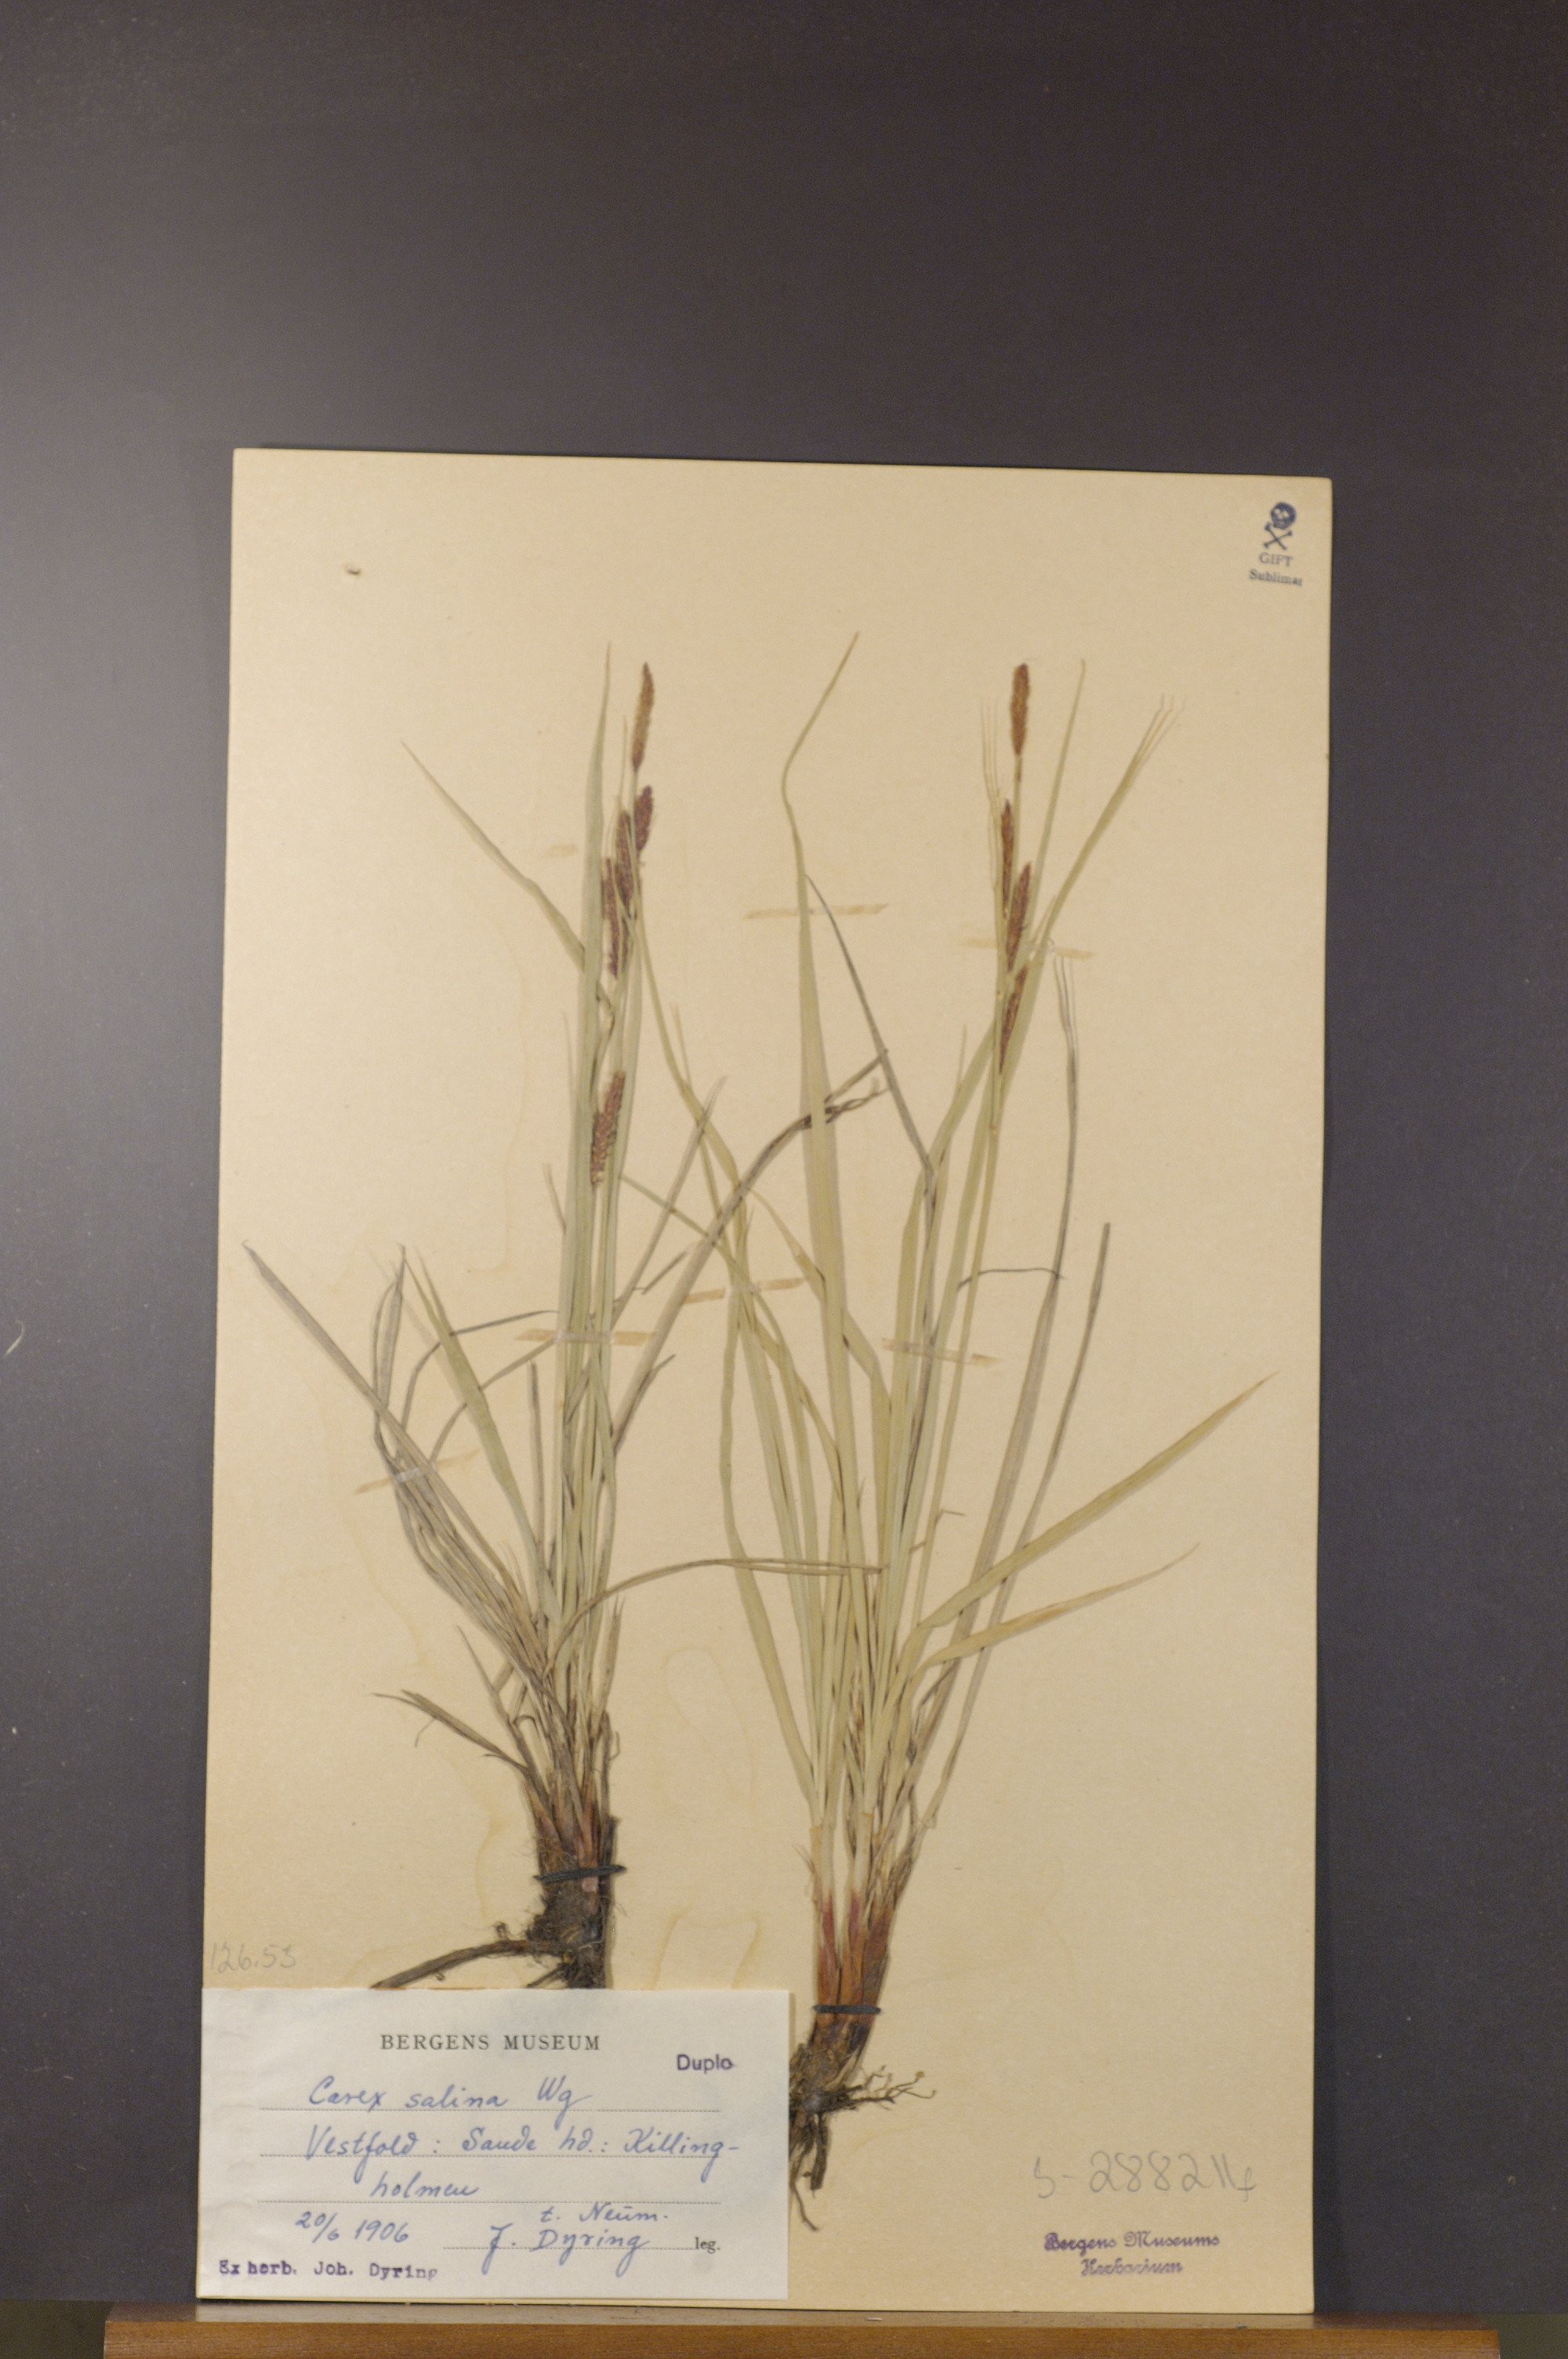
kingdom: Plantae
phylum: Tracheophyta
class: Liliopsida
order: Poales
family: Cyperaceae
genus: Carex
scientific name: Carex vacillans
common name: Sedge
